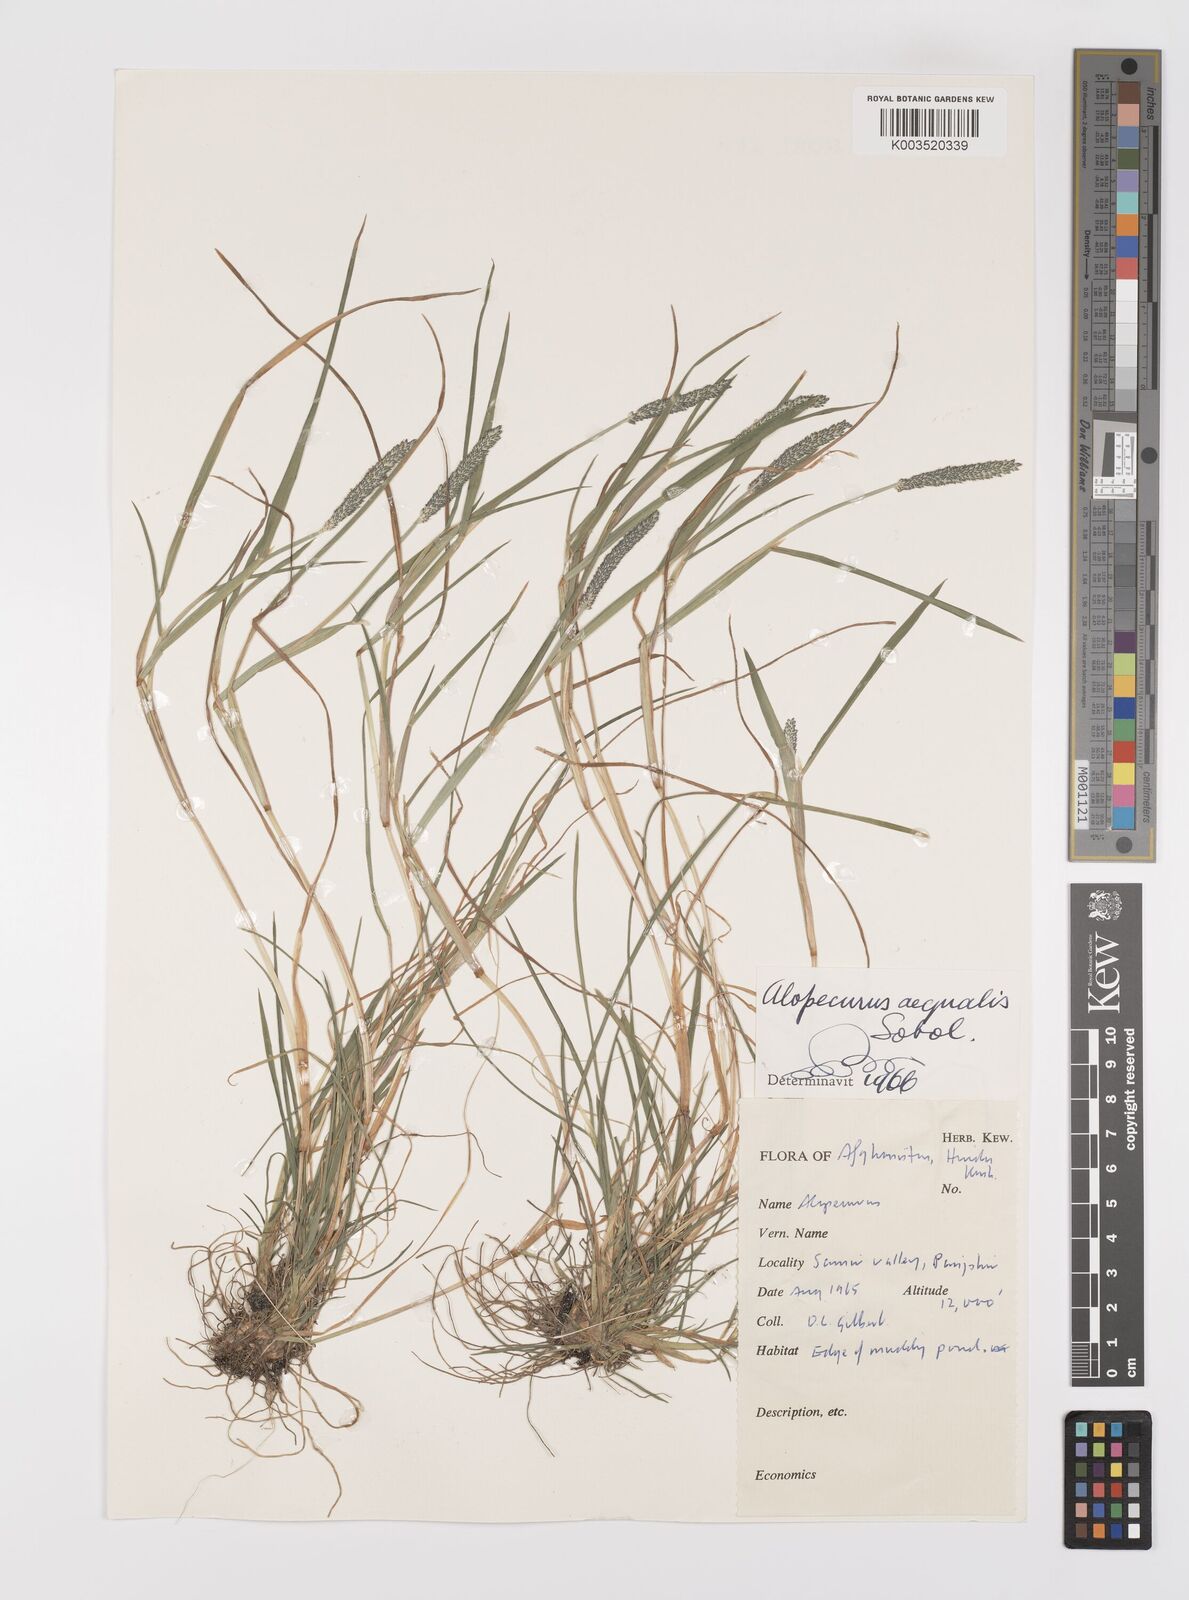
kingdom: Plantae
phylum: Tracheophyta
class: Liliopsida
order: Poales
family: Poaceae
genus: Alopecurus
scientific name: Alopecurus aequalis
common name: Orange foxtail
